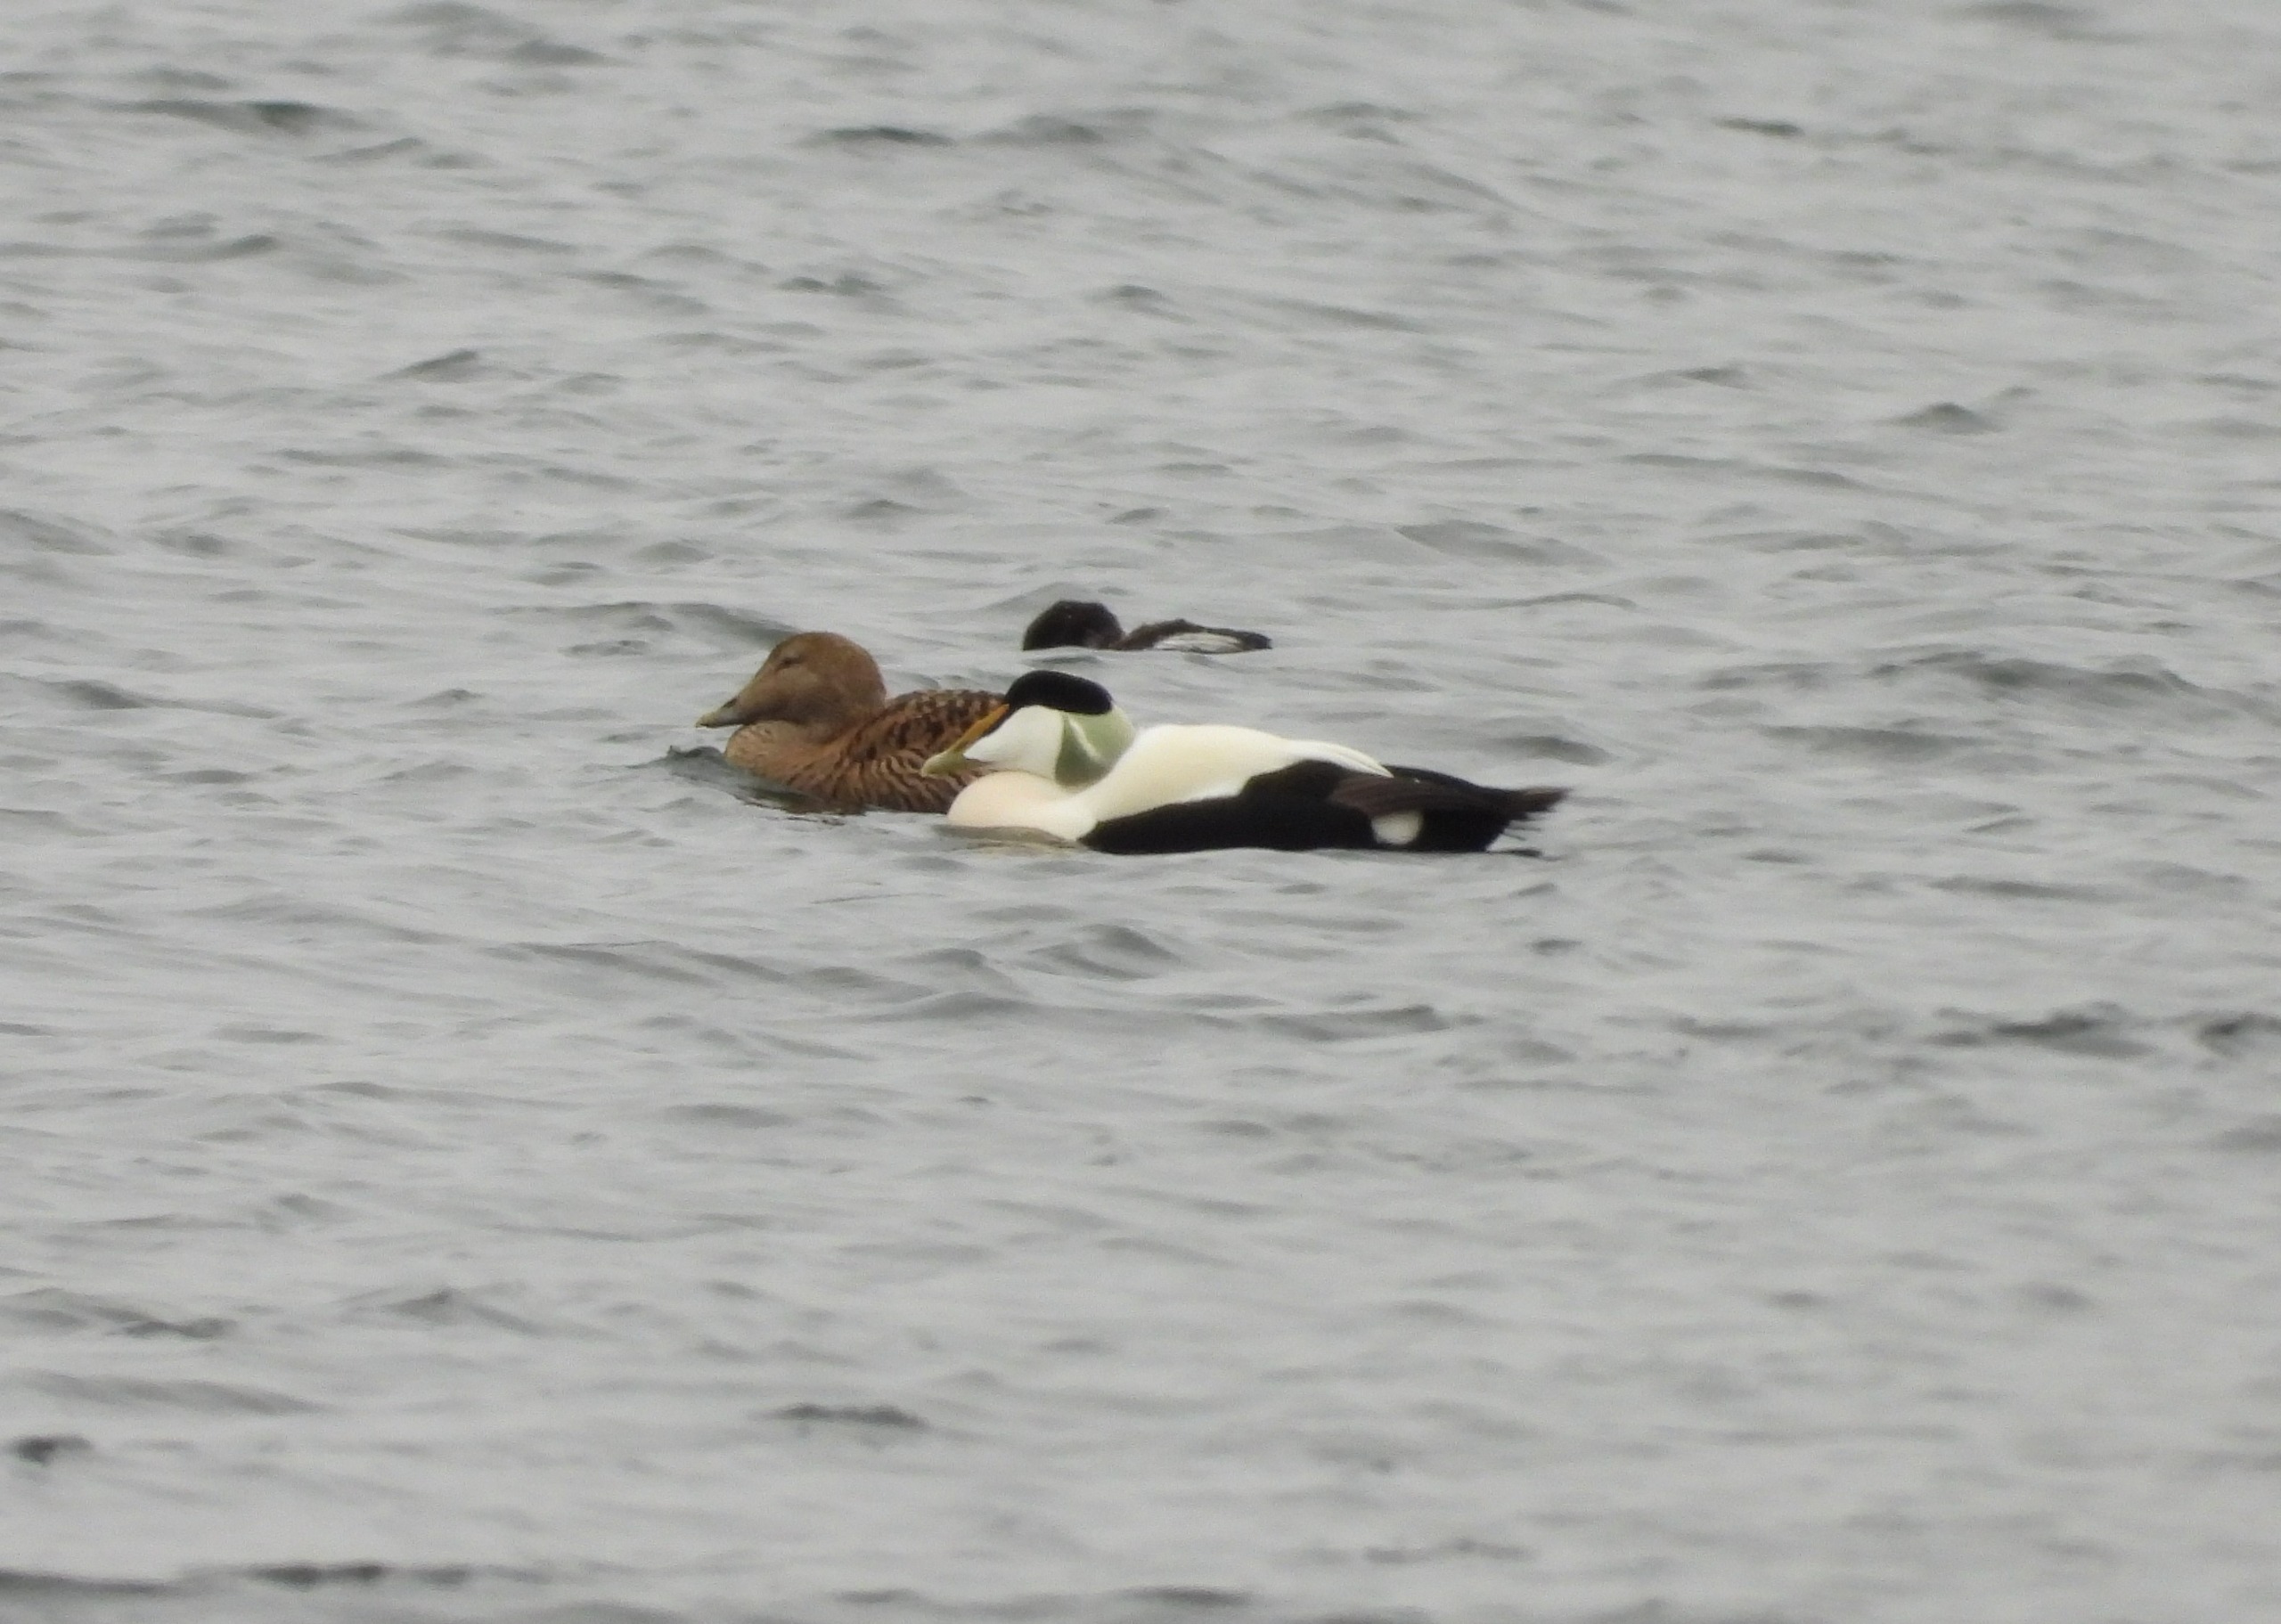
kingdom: Animalia
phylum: Chordata
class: Aves
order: Anseriformes
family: Anatidae
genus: Somateria
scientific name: Somateria mollissima
